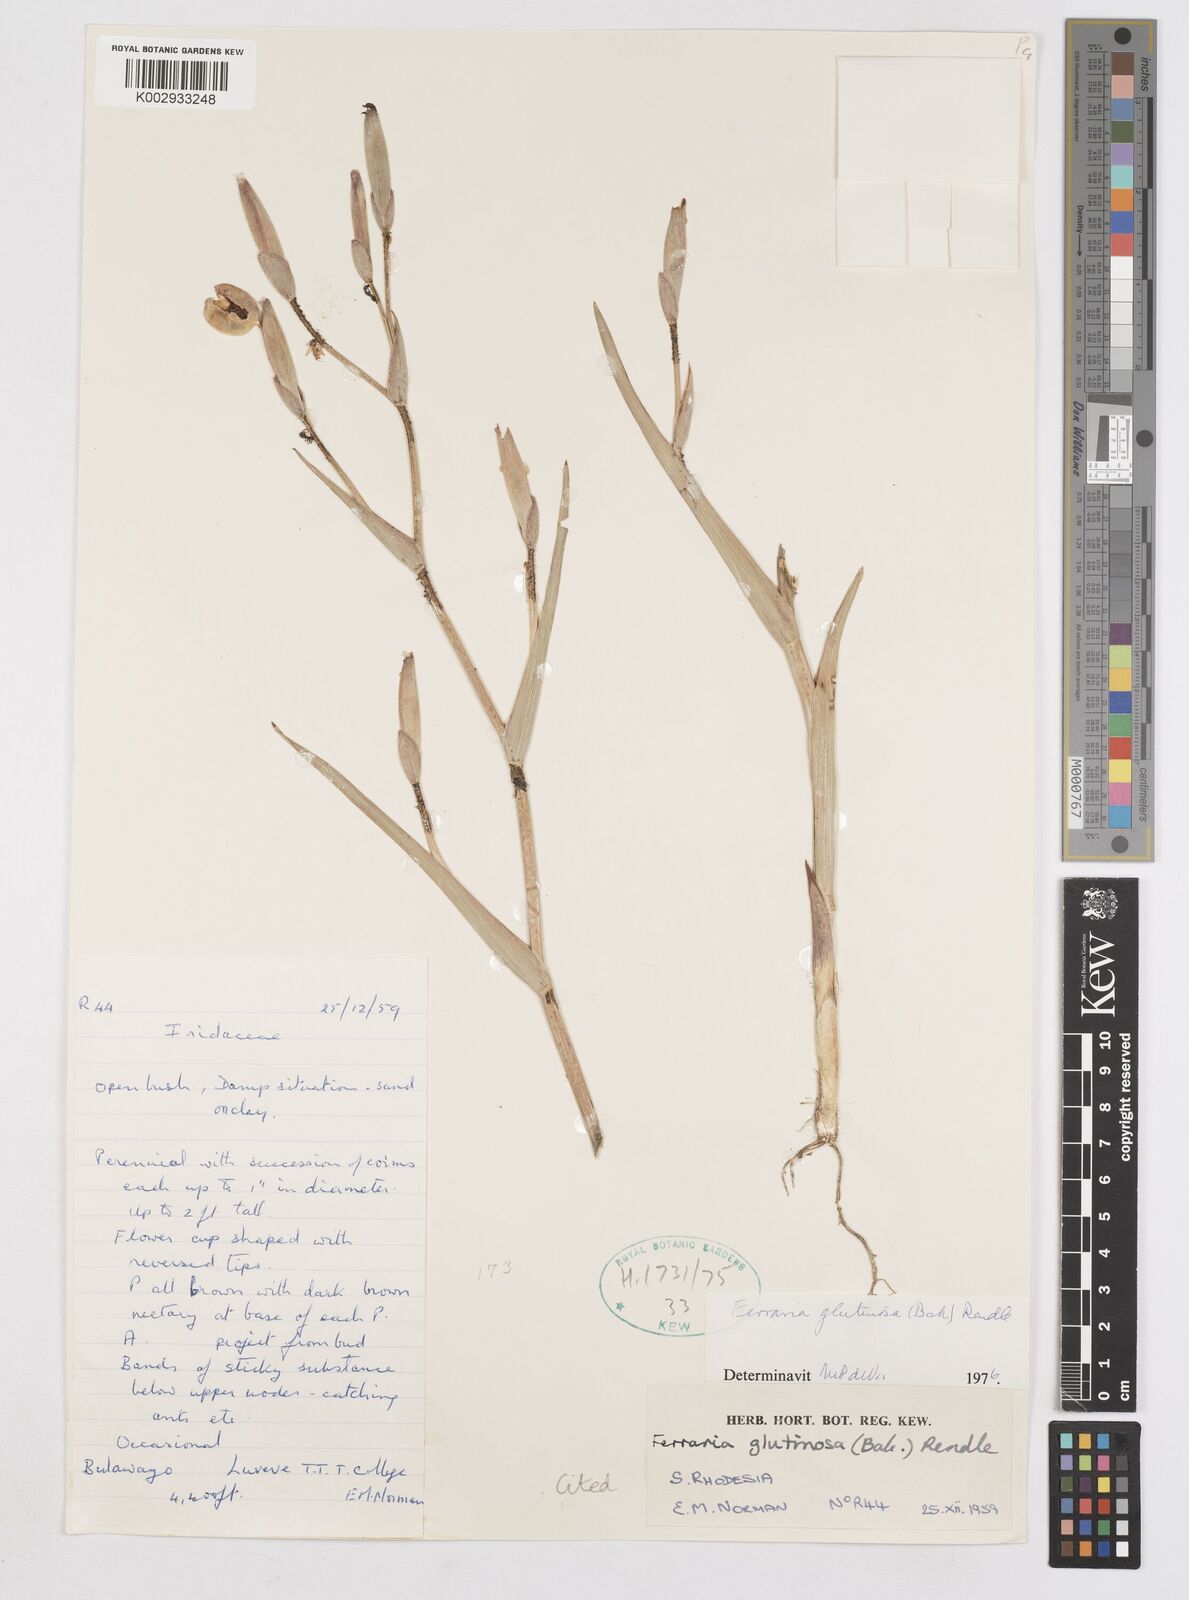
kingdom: Plantae
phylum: Tracheophyta
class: Liliopsida
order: Asparagales
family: Iridaceae
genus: Ferraria
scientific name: Ferraria glutinosa
